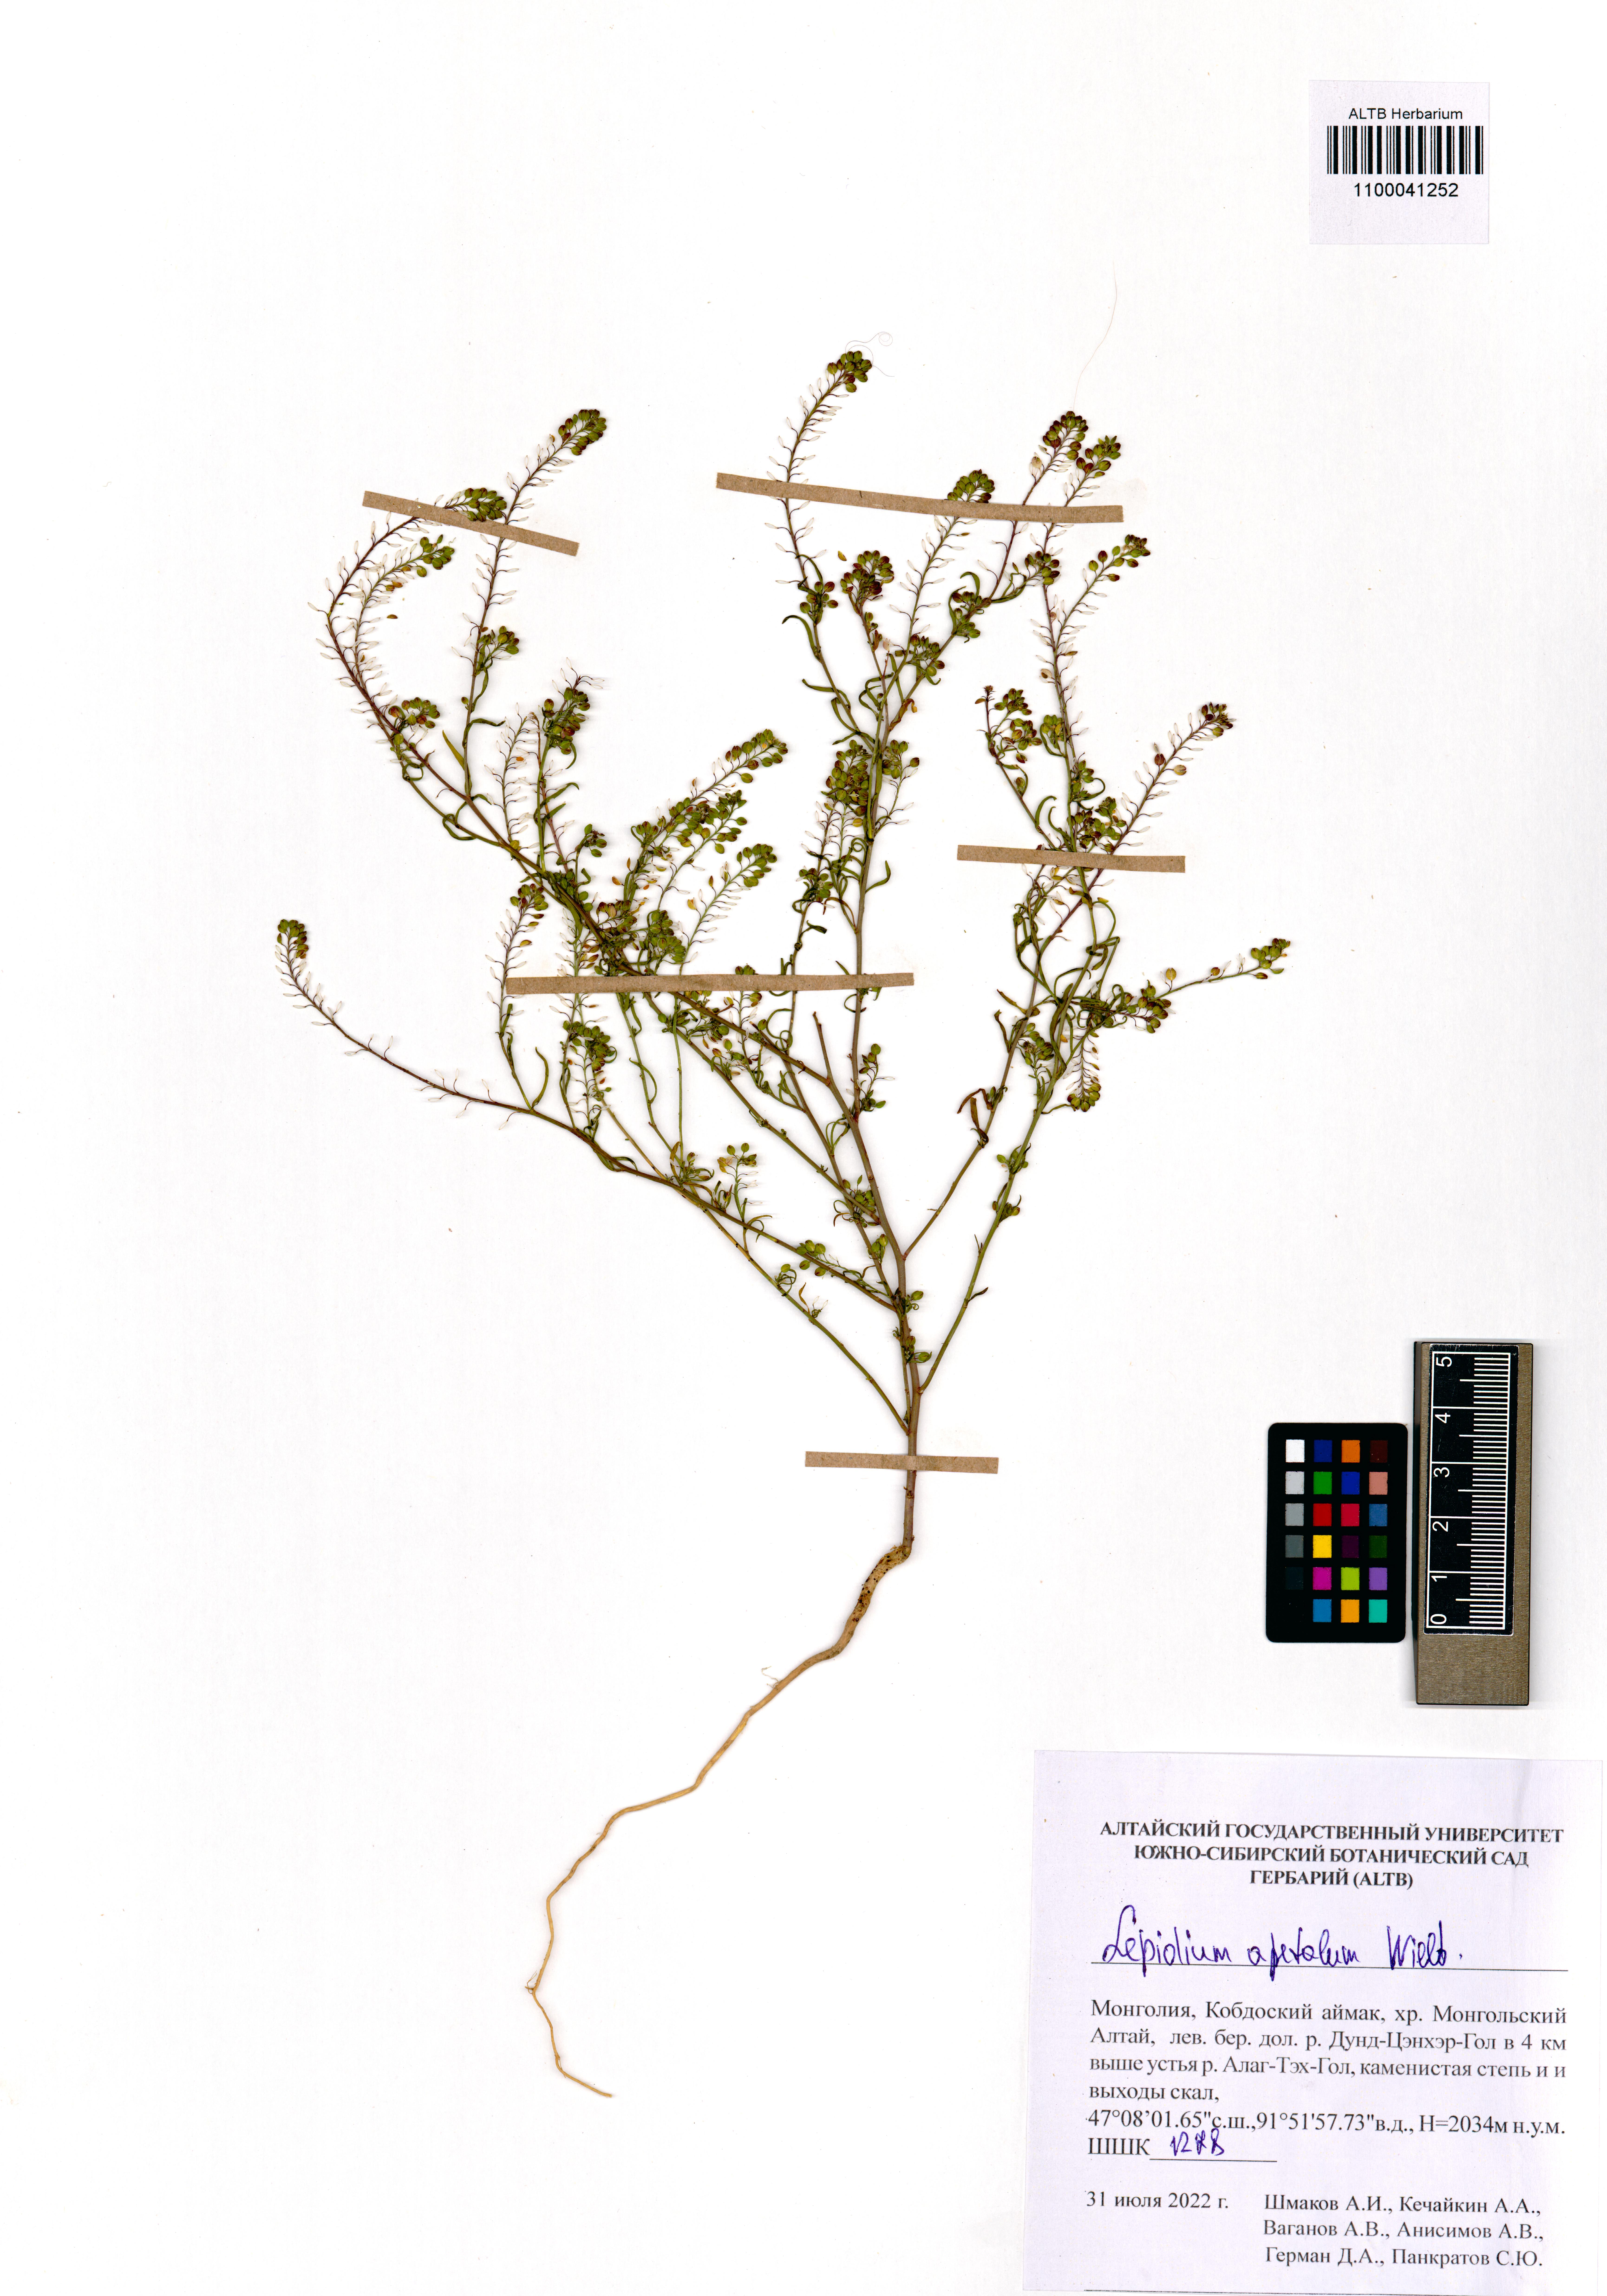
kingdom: Plantae
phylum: Tracheophyta
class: Magnoliopsida
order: Brassicales
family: Brassicaceae
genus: Lepidium
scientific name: Lepidium apetalum
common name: Pepperweed
